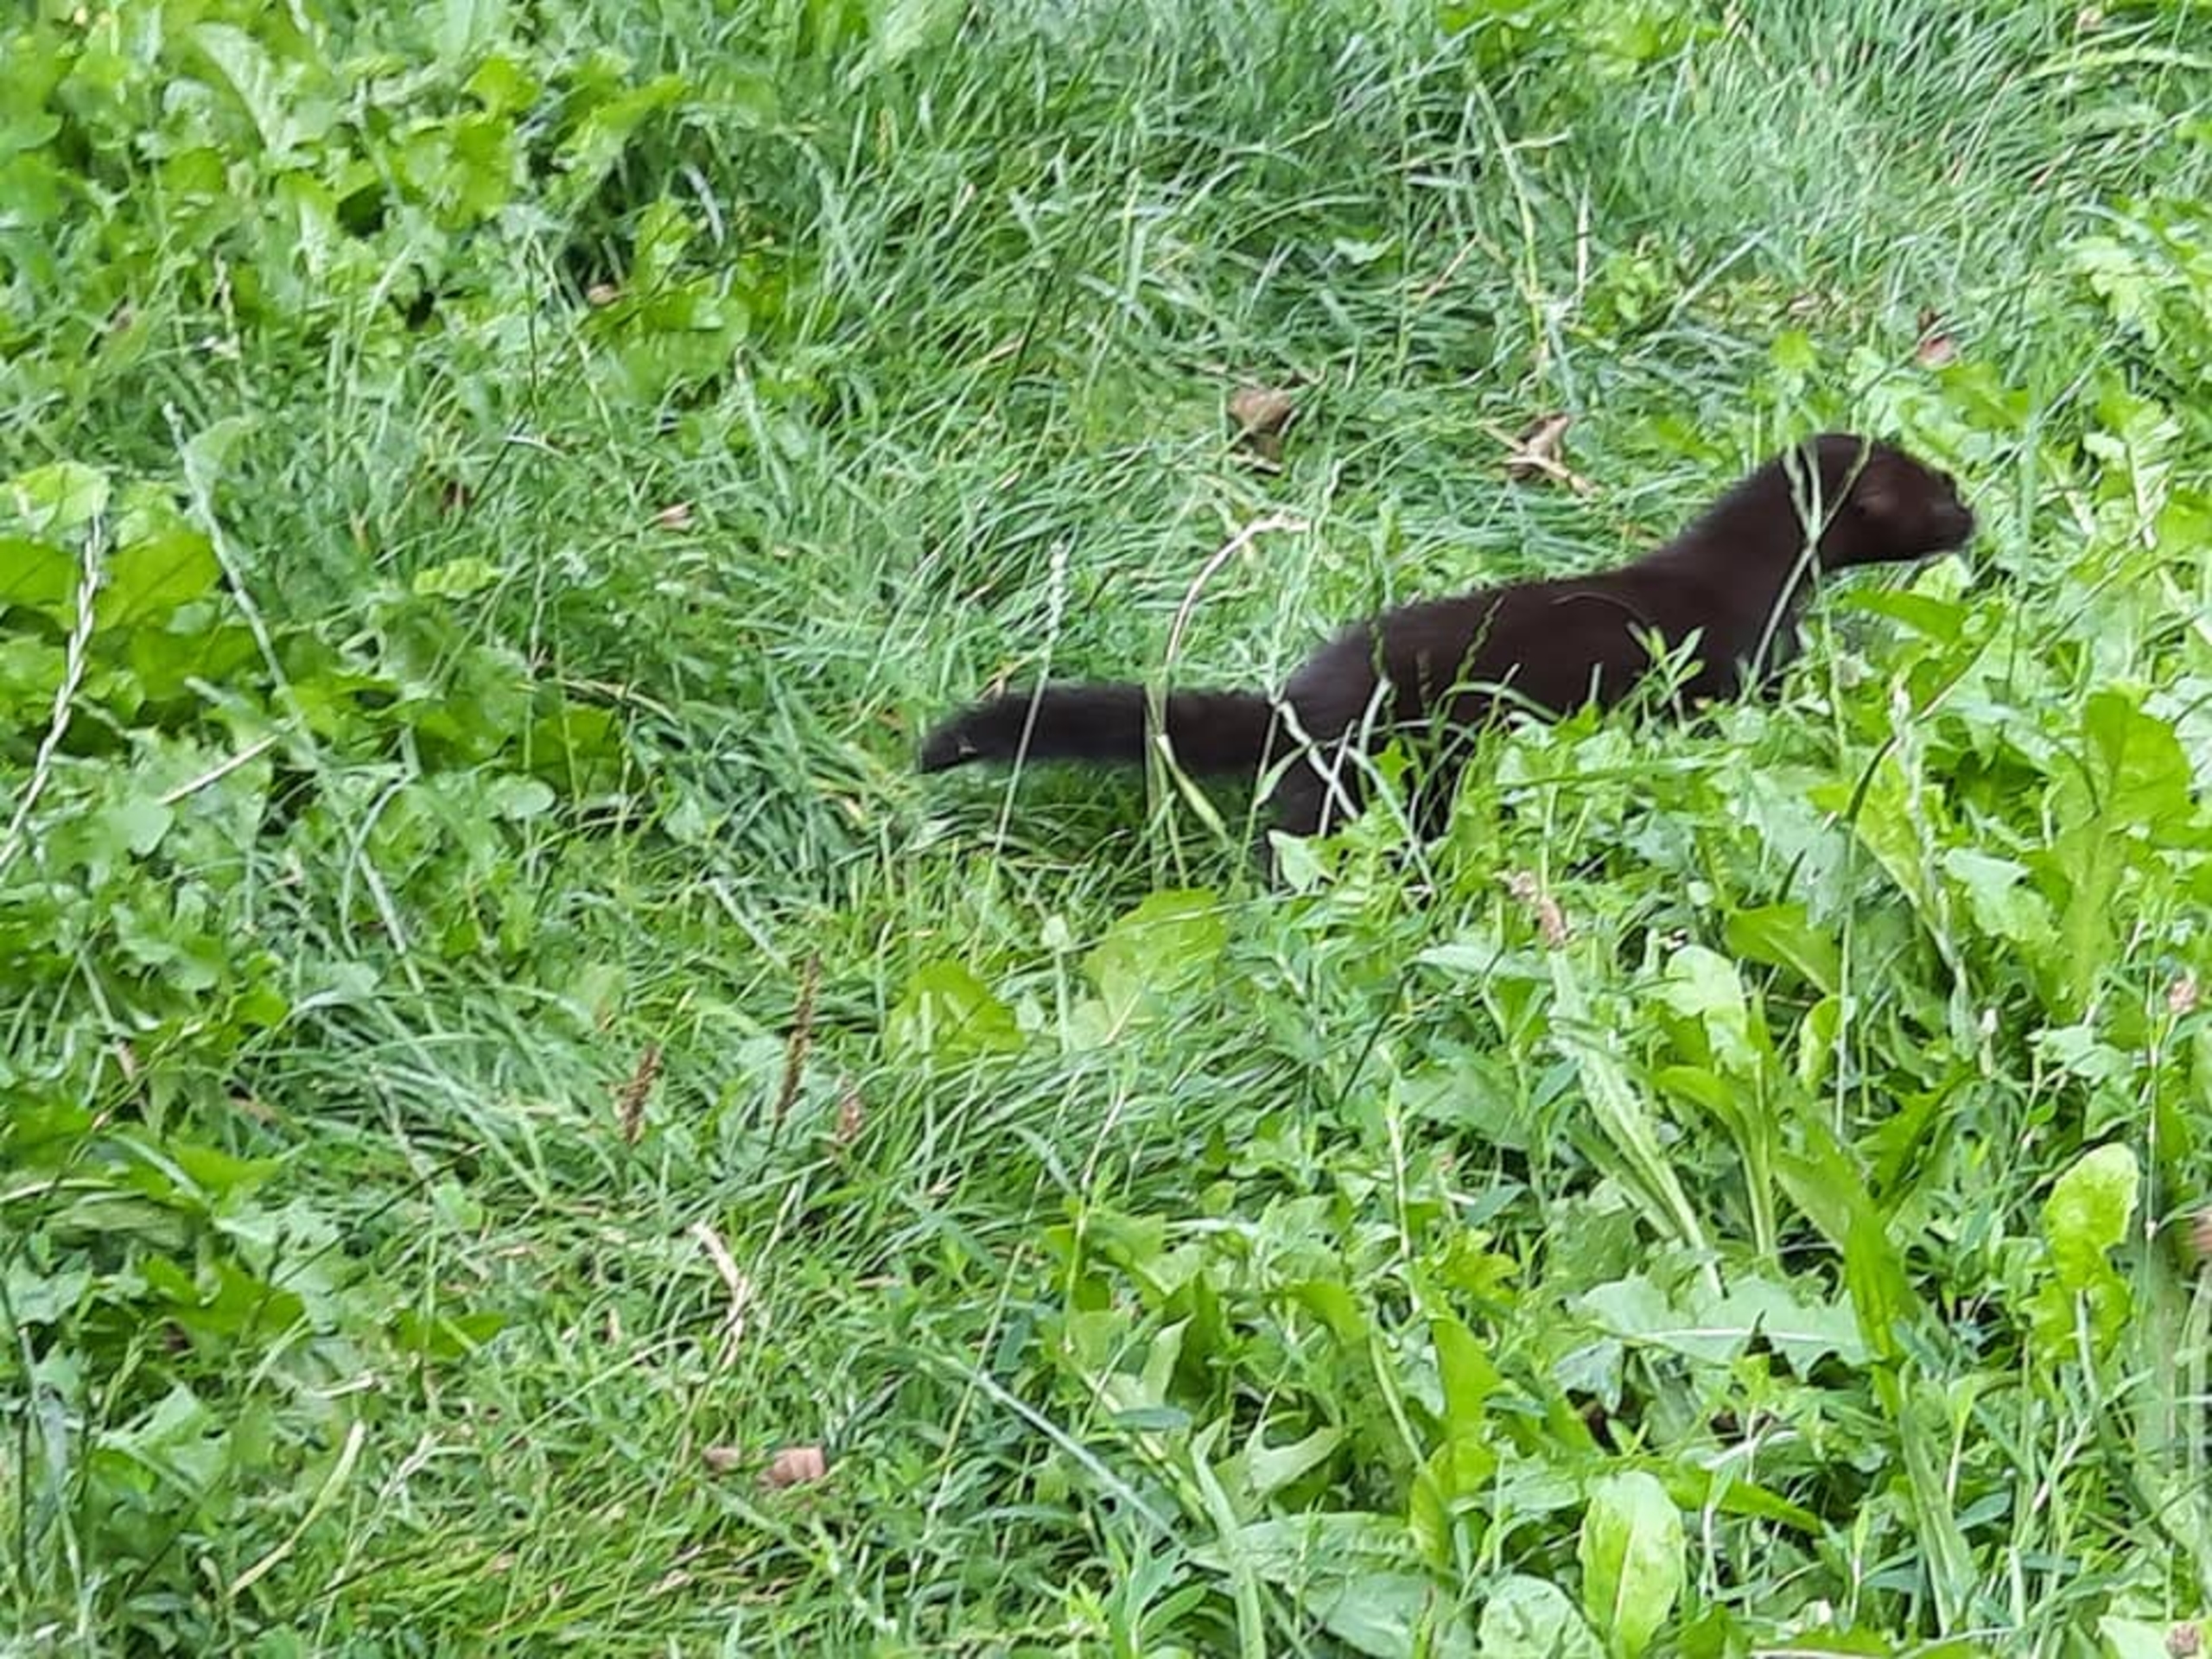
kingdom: Animalia
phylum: Chordata
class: Mammalia
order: Carnivora
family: Mustelidae
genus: Mustela
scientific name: Mustela vison
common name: Mink
